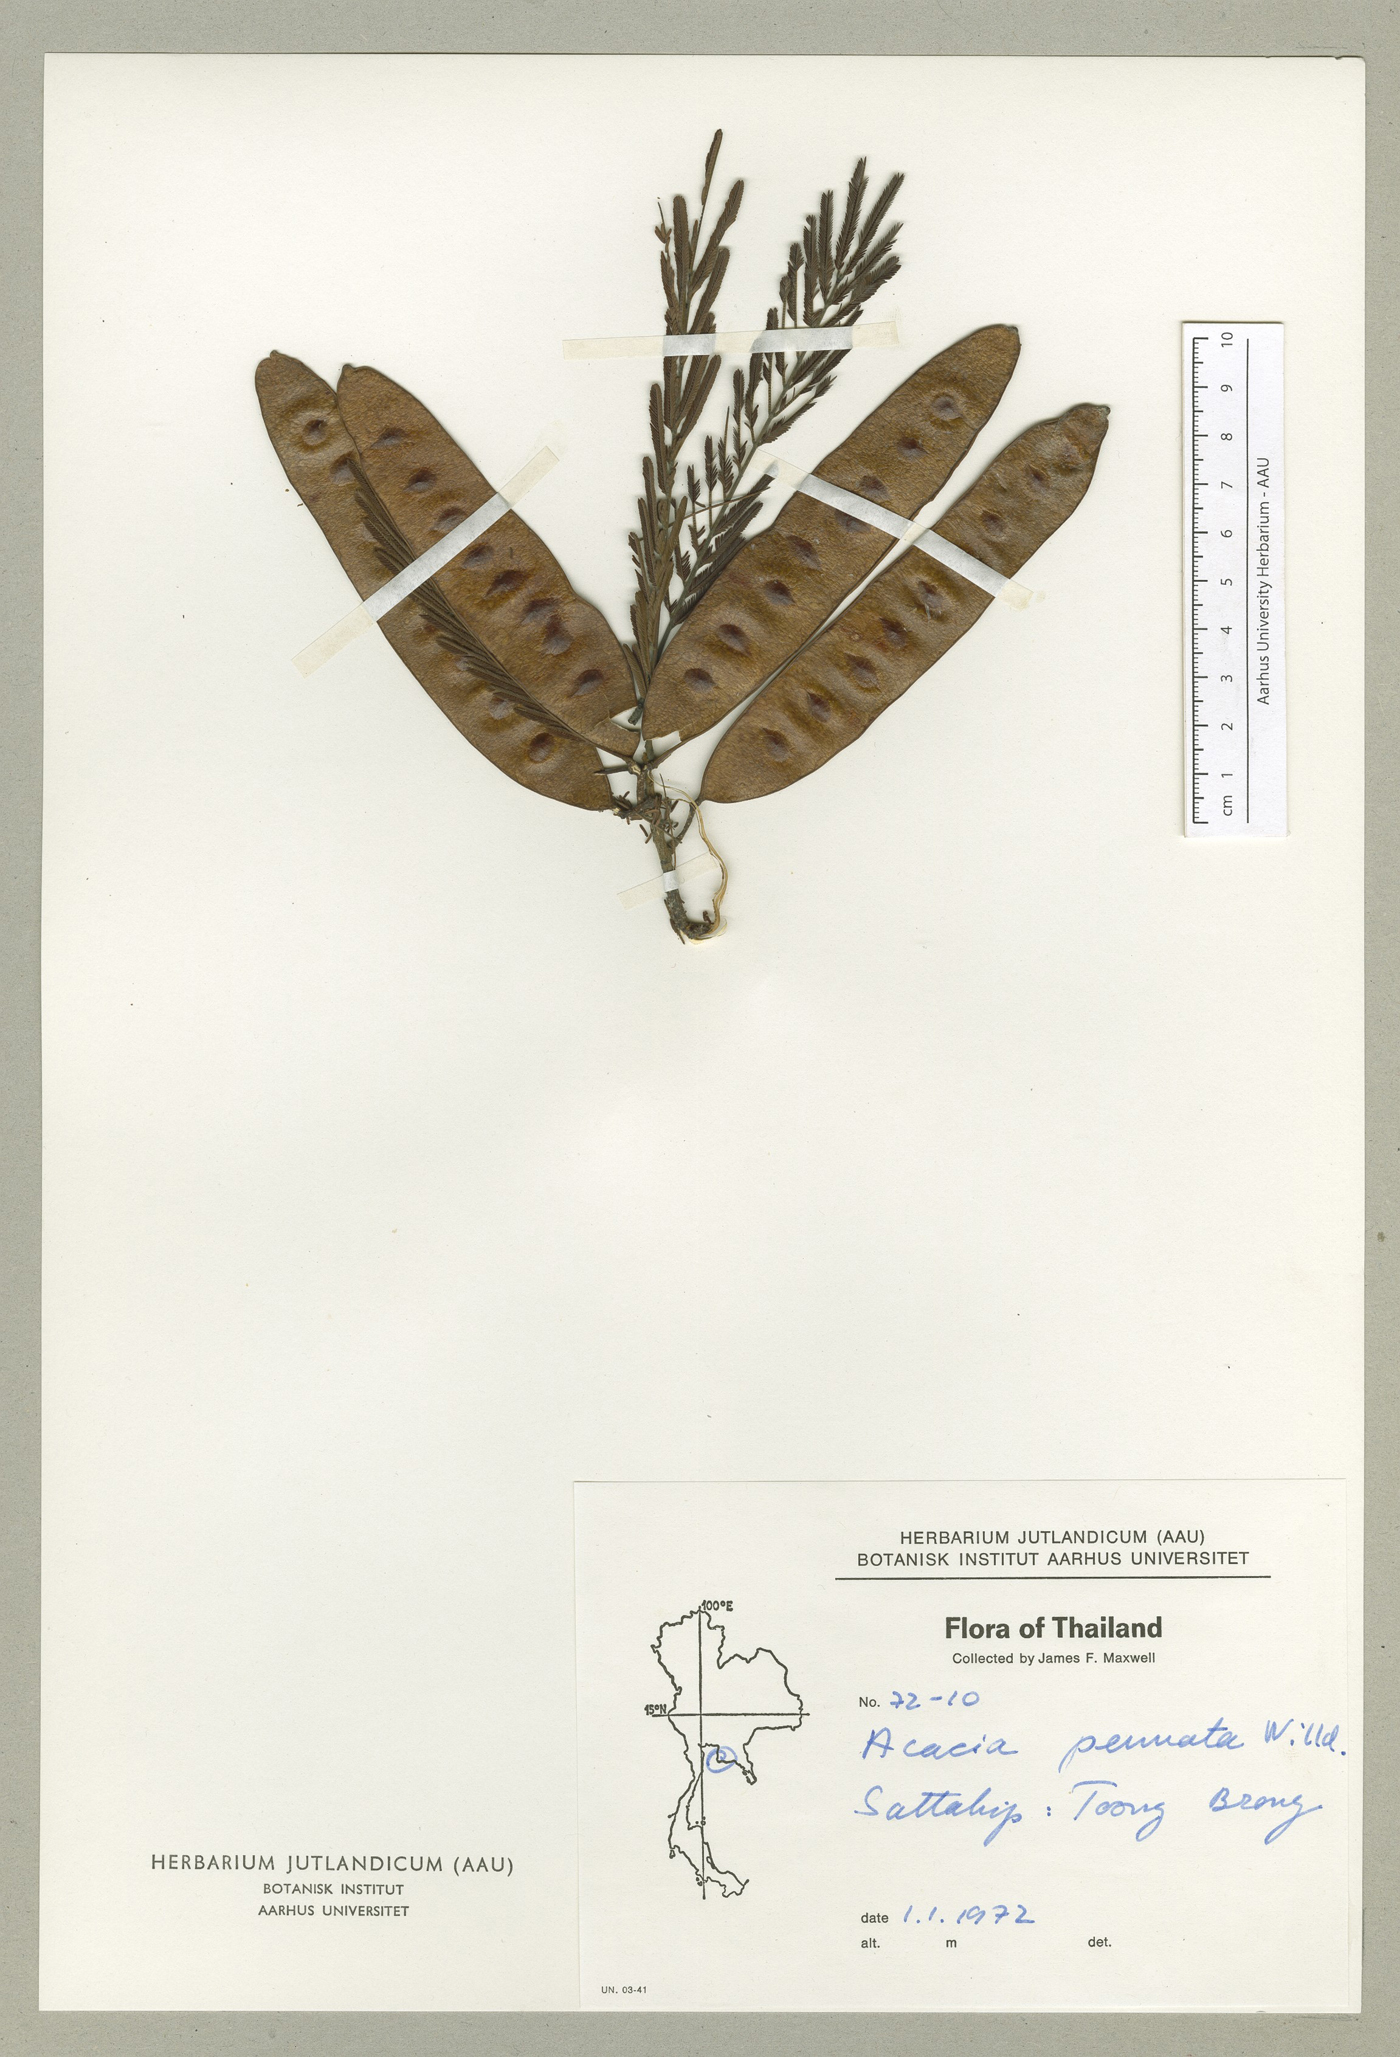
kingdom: Plantae
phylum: Tracheophyta
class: Magnoliopsida
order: Fabales
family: Fabaceae
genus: Senegalia
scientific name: Senegalia kerrii
